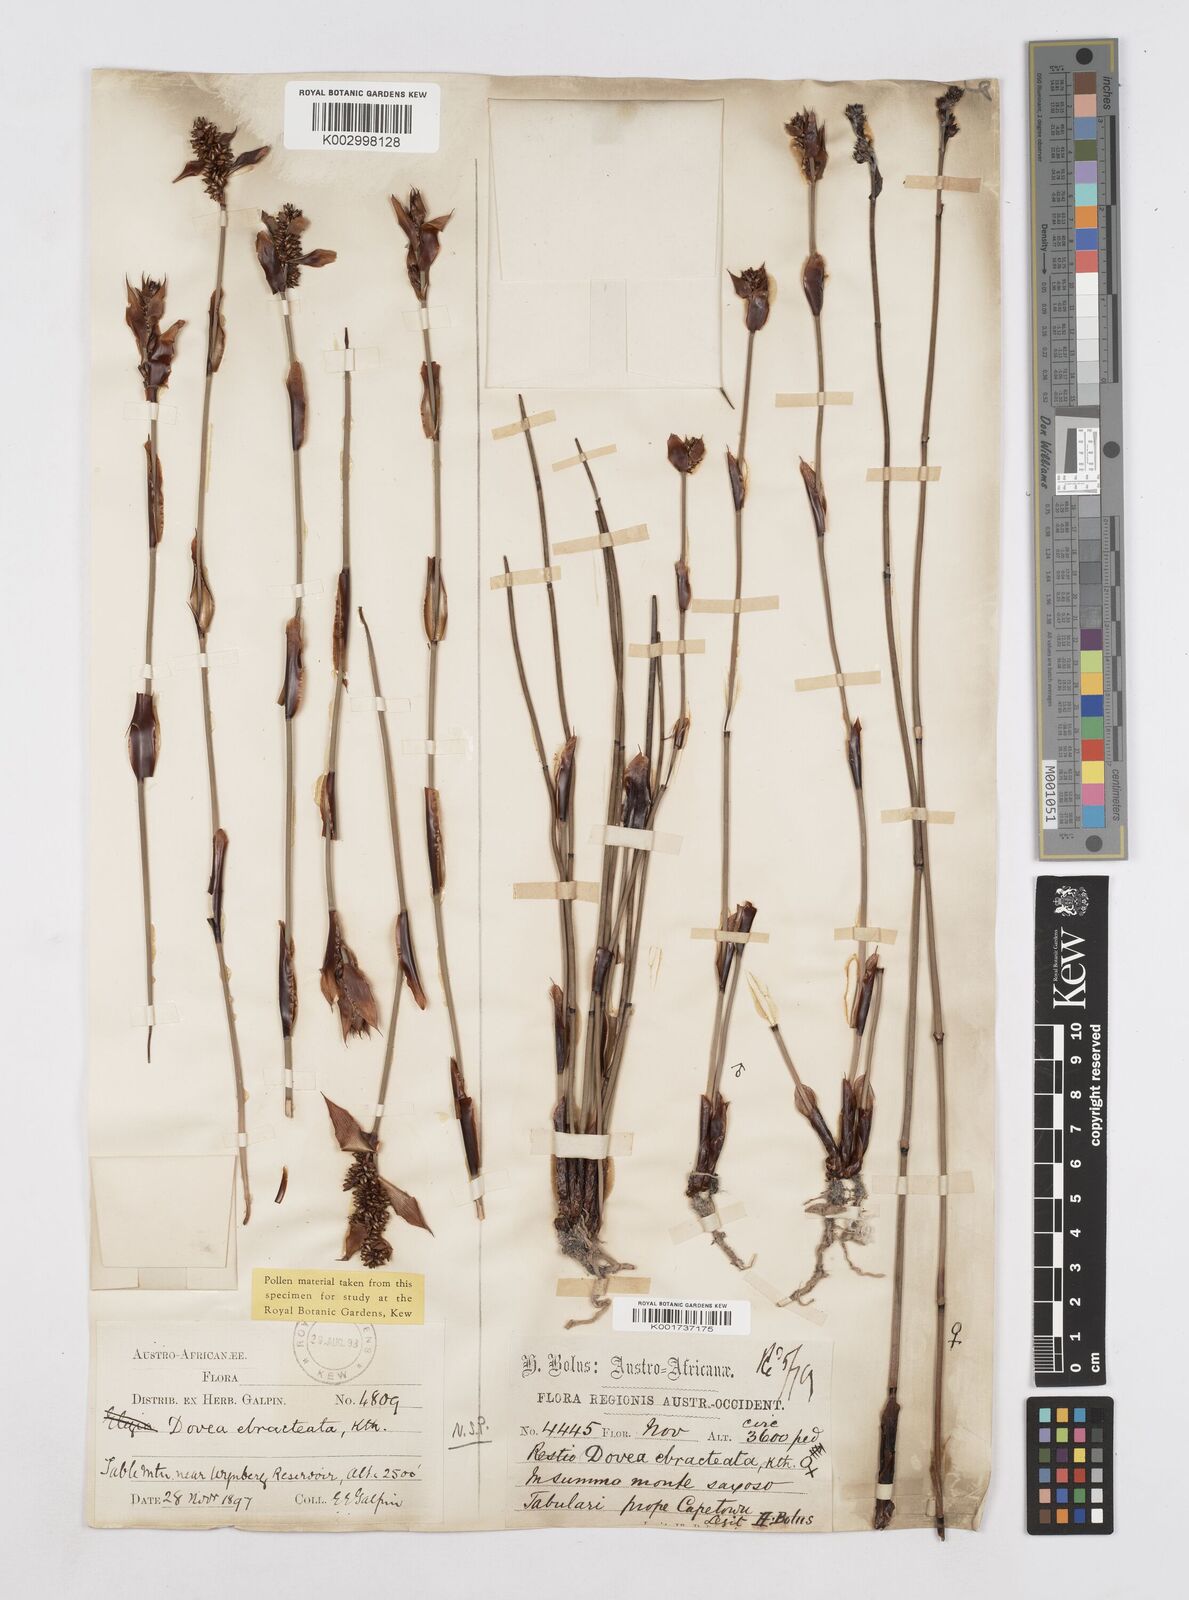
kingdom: Plantae
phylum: Tracheophyta
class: Liliopsida
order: Poales
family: Restionaceae
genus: Elegia
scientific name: Elegia ebracteata
